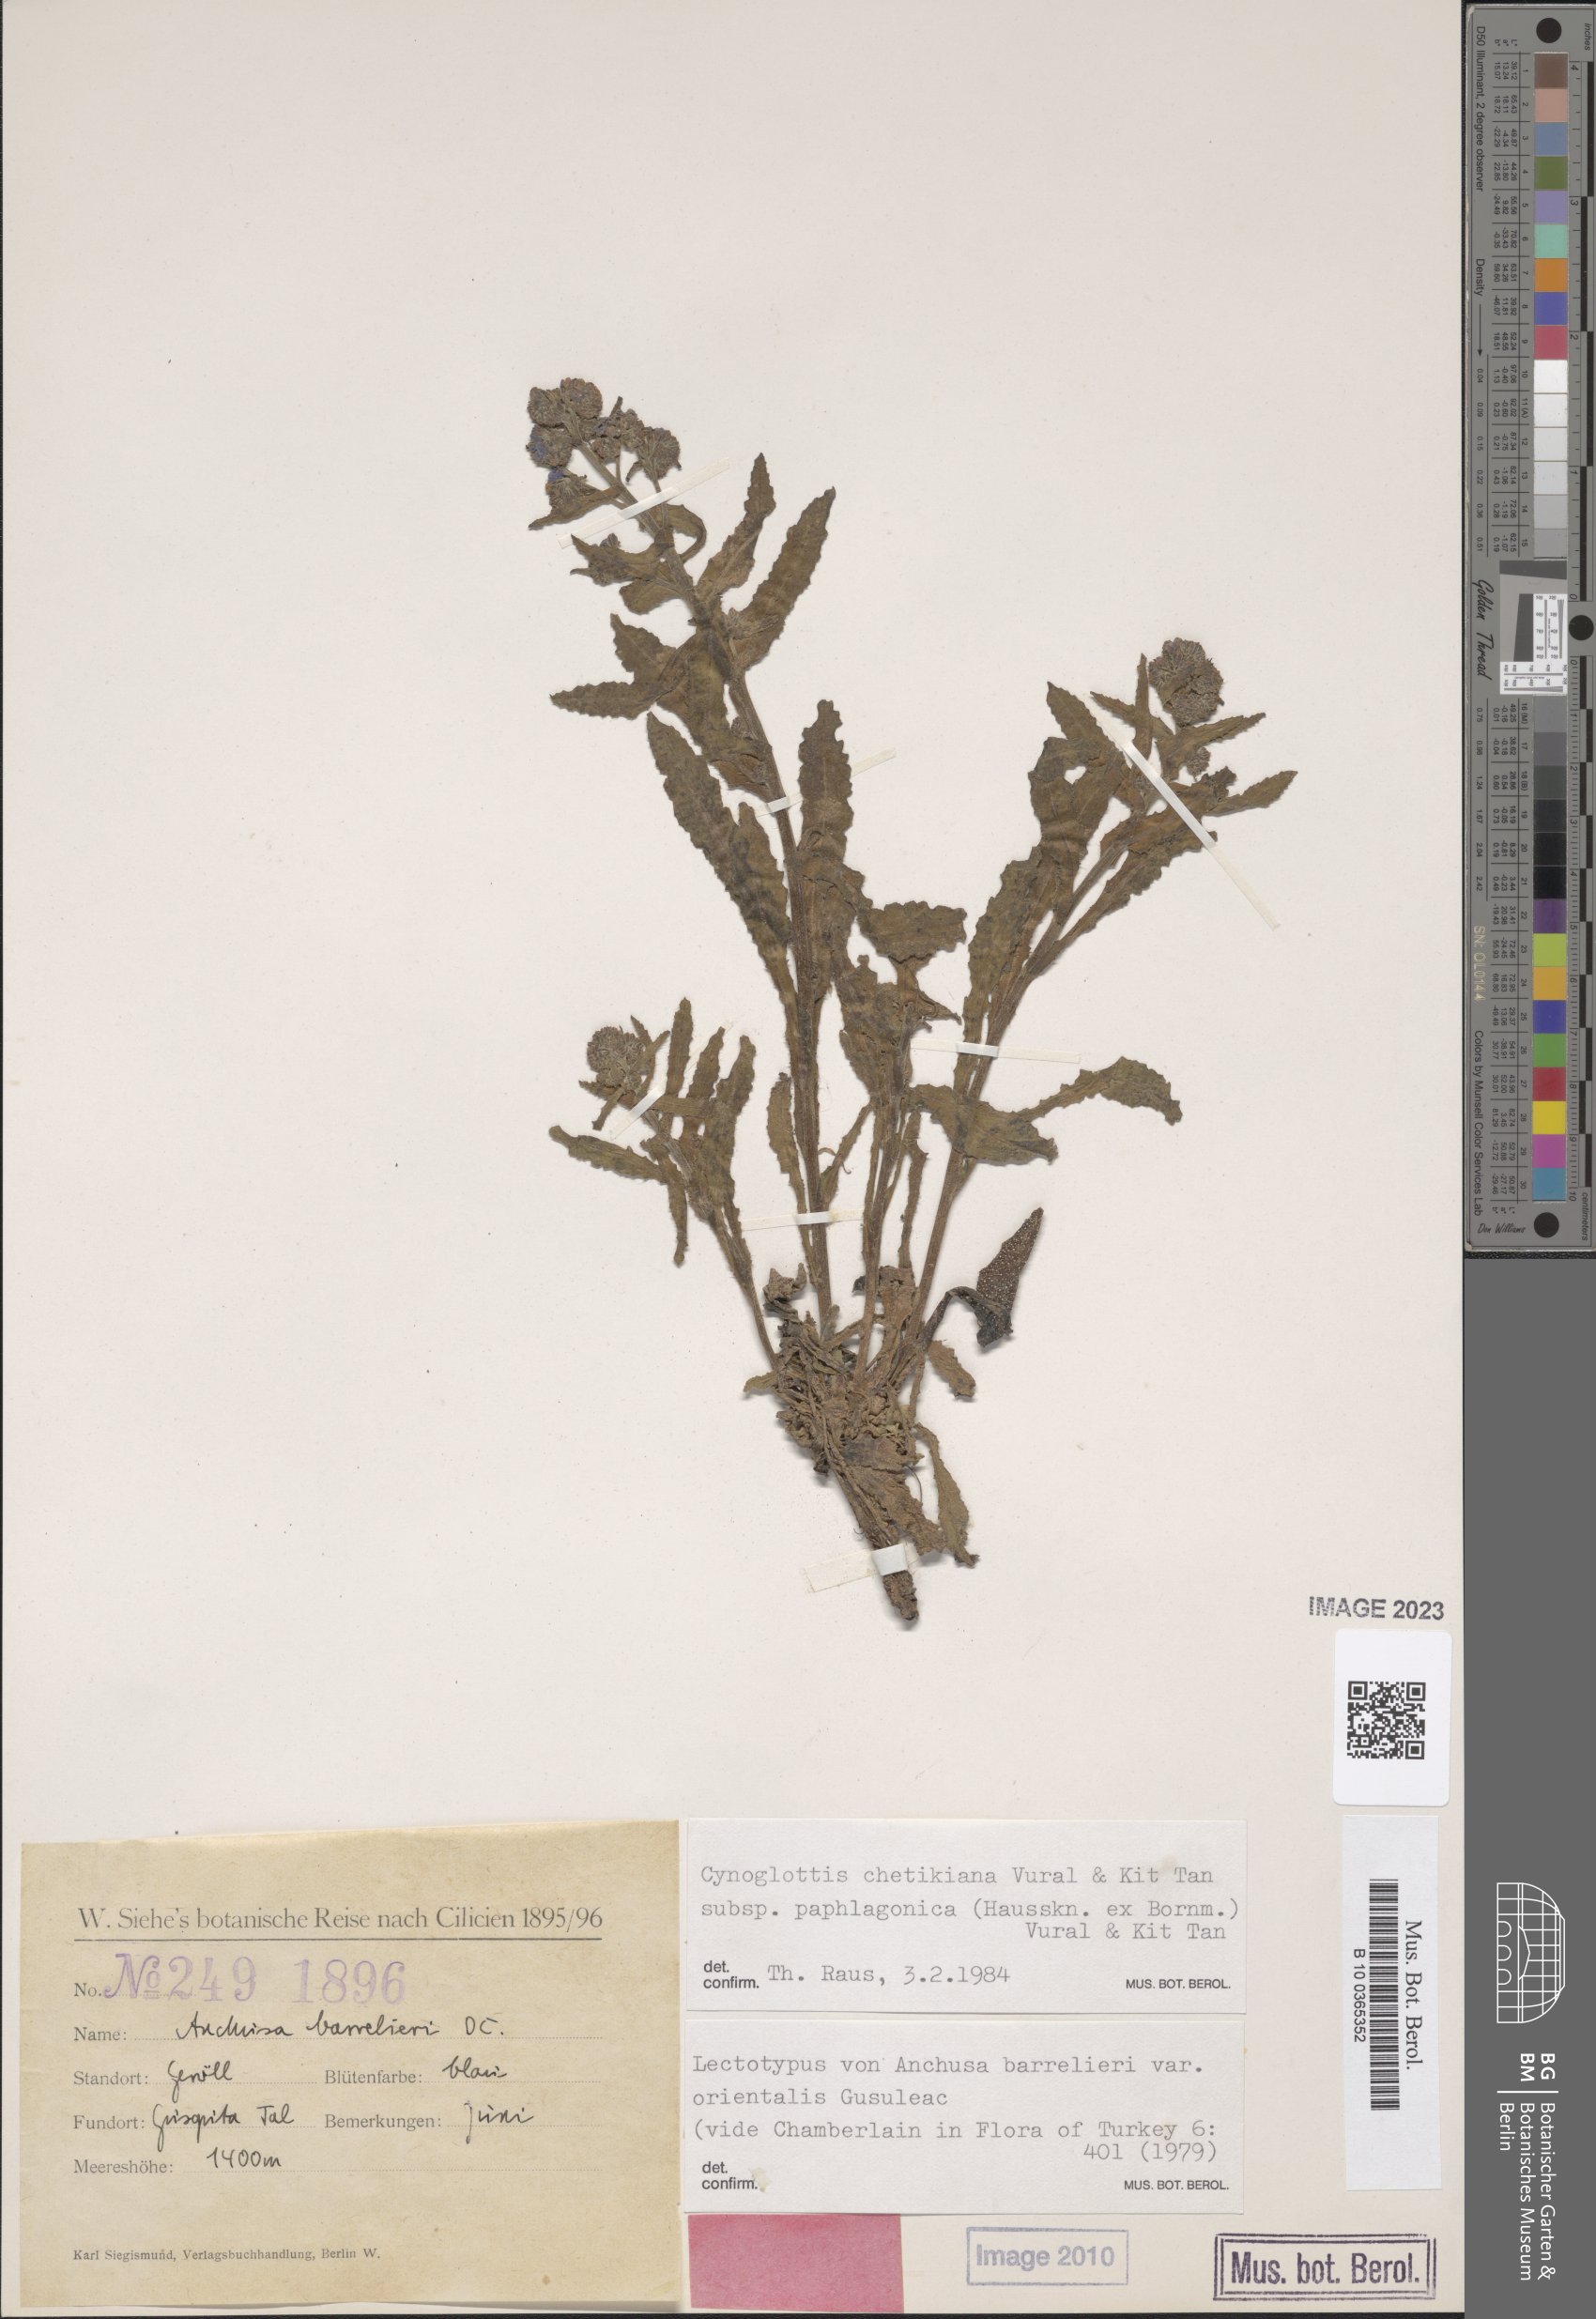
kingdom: Plantae
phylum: Tracheophyta
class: Magnoliopsida
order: Boraginales
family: Boraginaceae
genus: Cynoglottis
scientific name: Cynoglottis chetikiana
